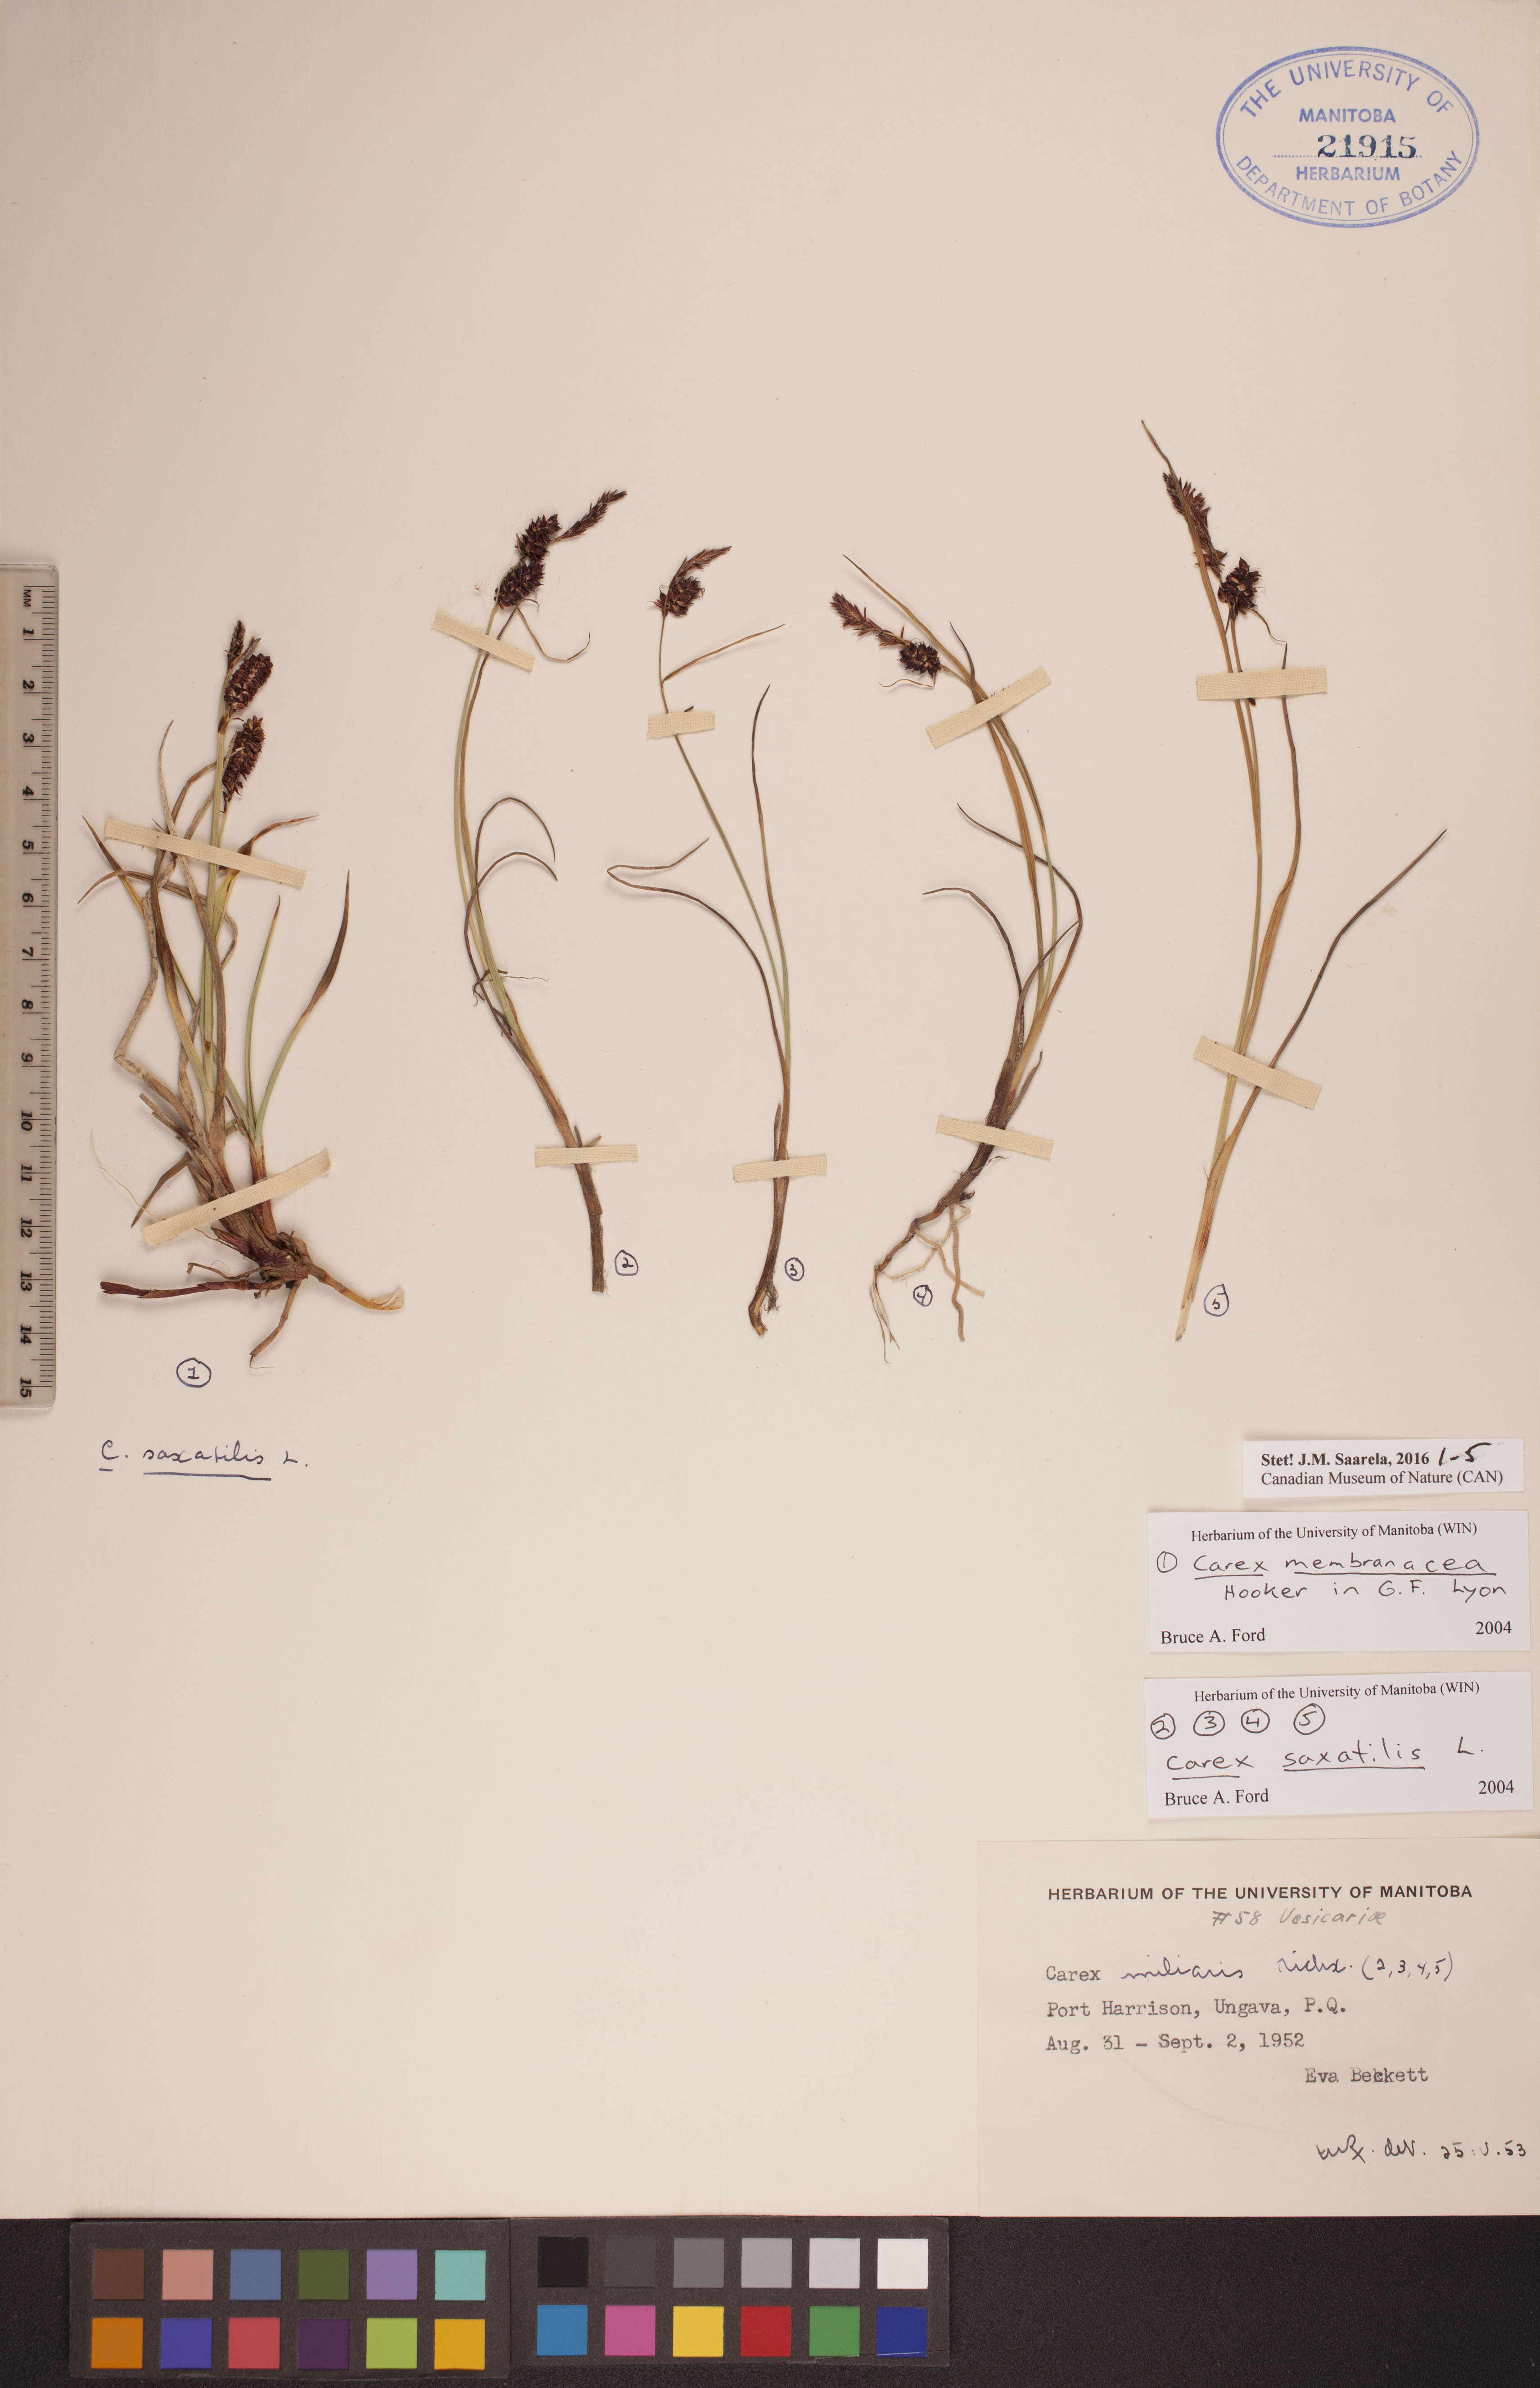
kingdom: Plantae
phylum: Tracheophyta
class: Liliopsida
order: Poales
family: Cyperaceae
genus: Carex
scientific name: Carex membranacea
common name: Fragile sedge
